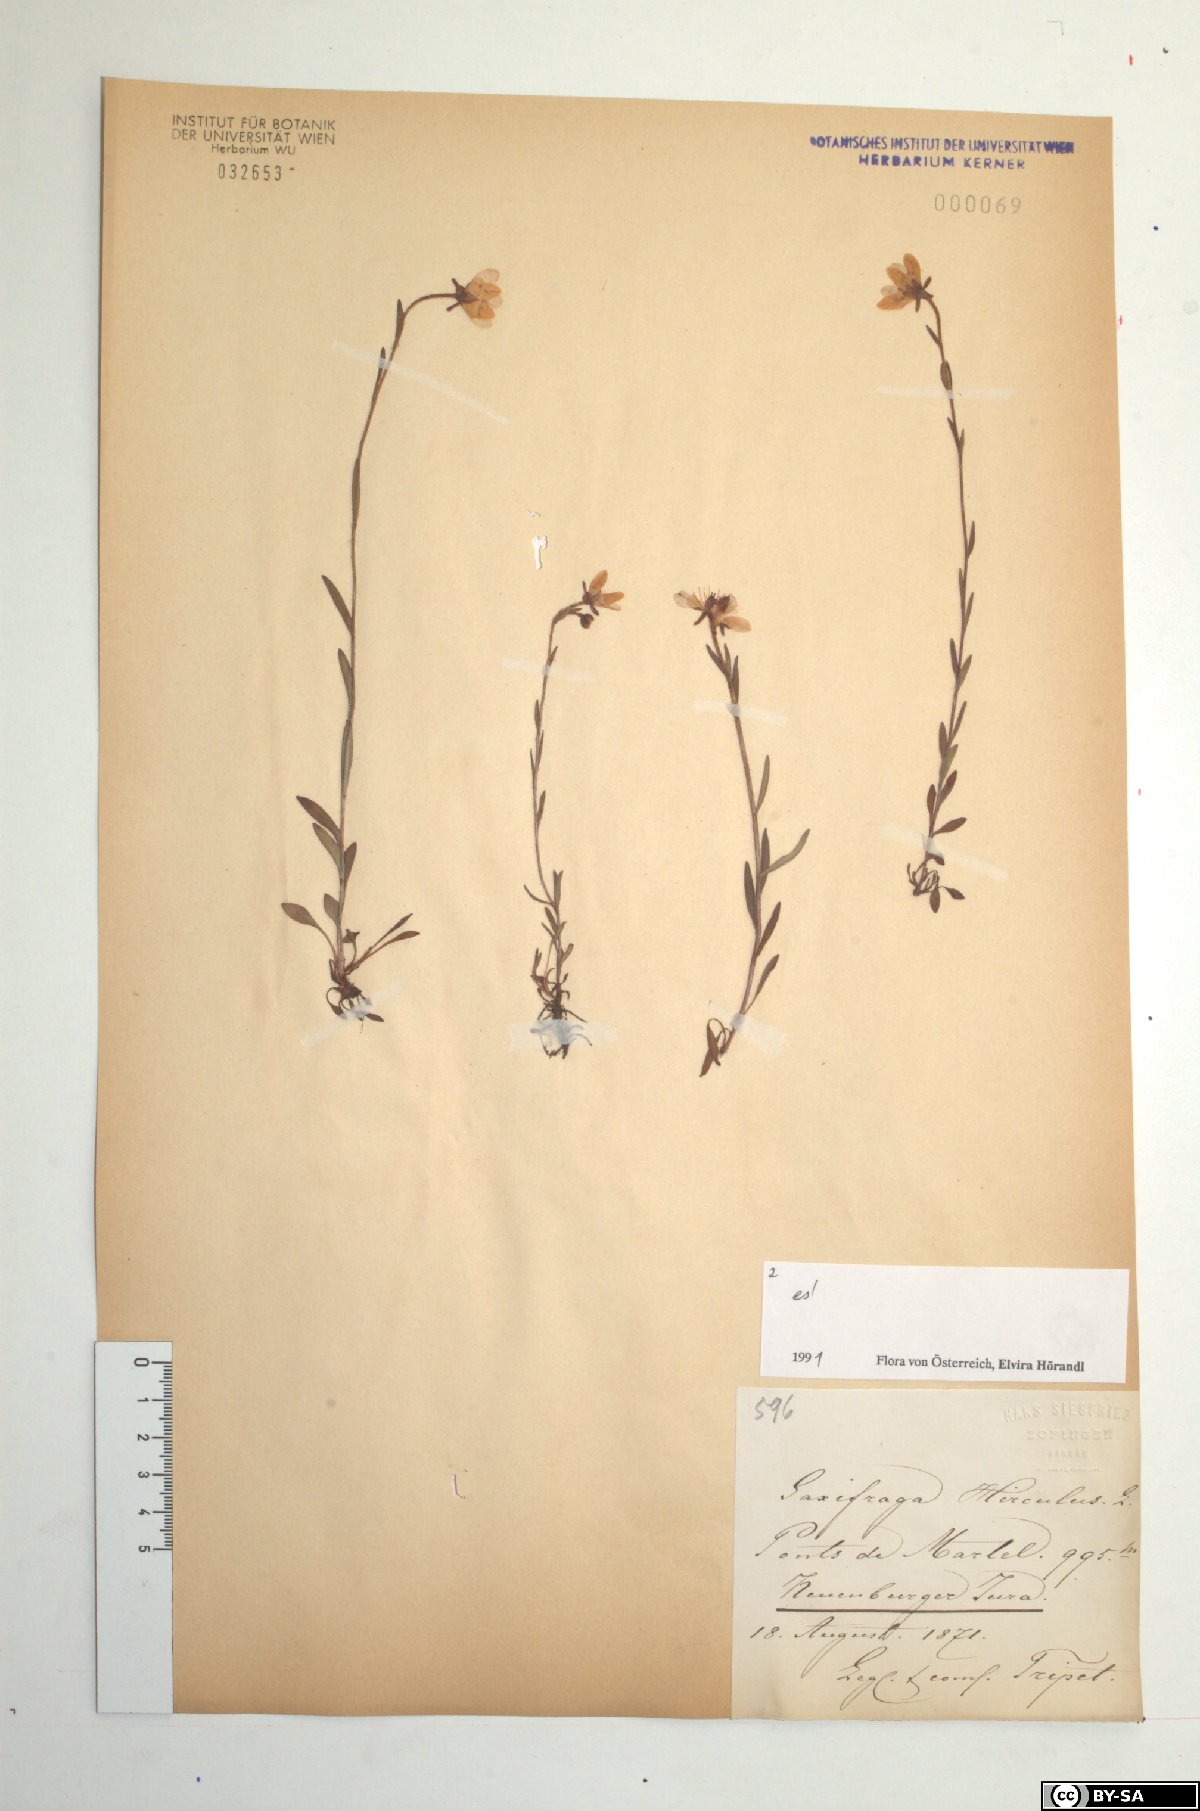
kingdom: Plantae
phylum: Tracheophyta
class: Magnoliopsida
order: Saxifragales
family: Saxifragaceae
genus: Saxifraga
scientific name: Saxifraga hirculus
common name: Yellow marsh saxifrage
